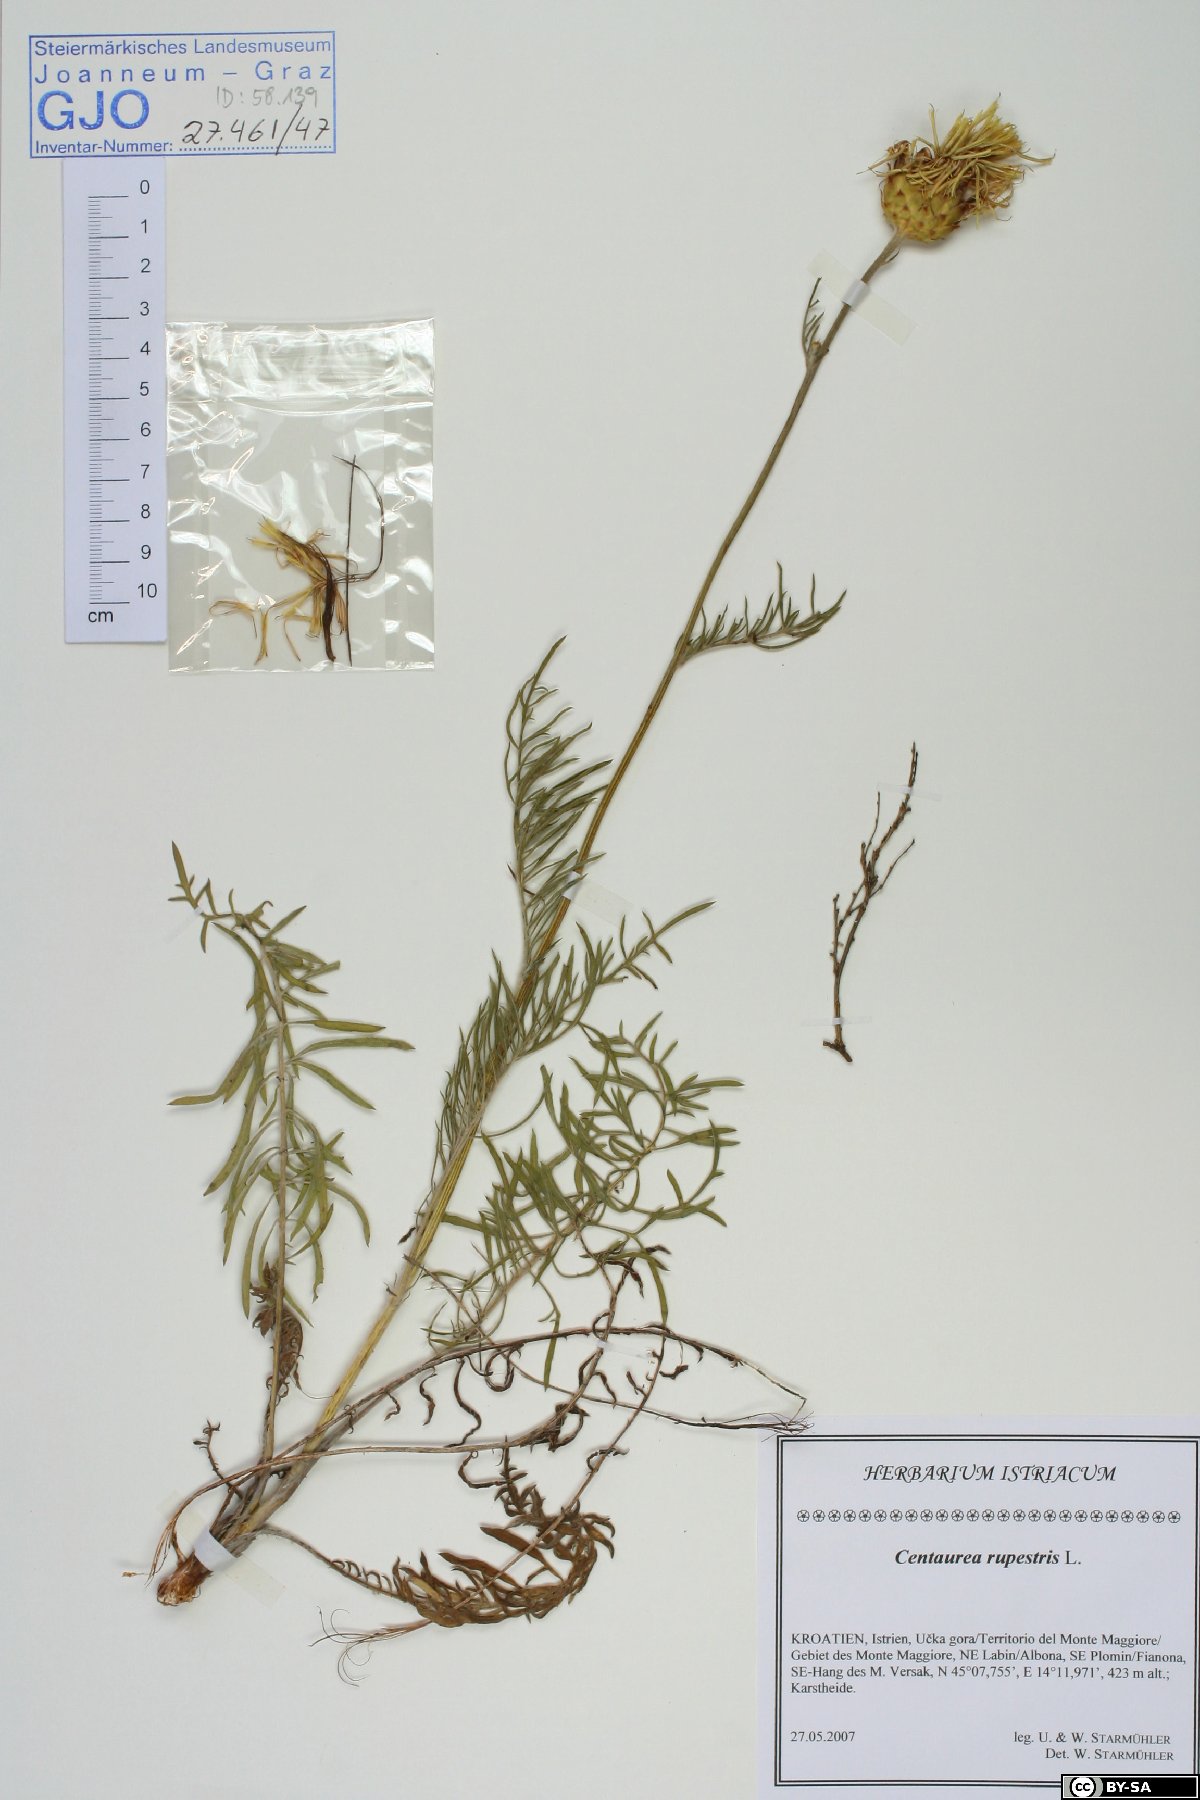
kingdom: Plantae
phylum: Tracheophyta
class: Magnoliopsida
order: Asterales
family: Asteraceae
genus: Centaurea
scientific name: Centaurea rupestris
